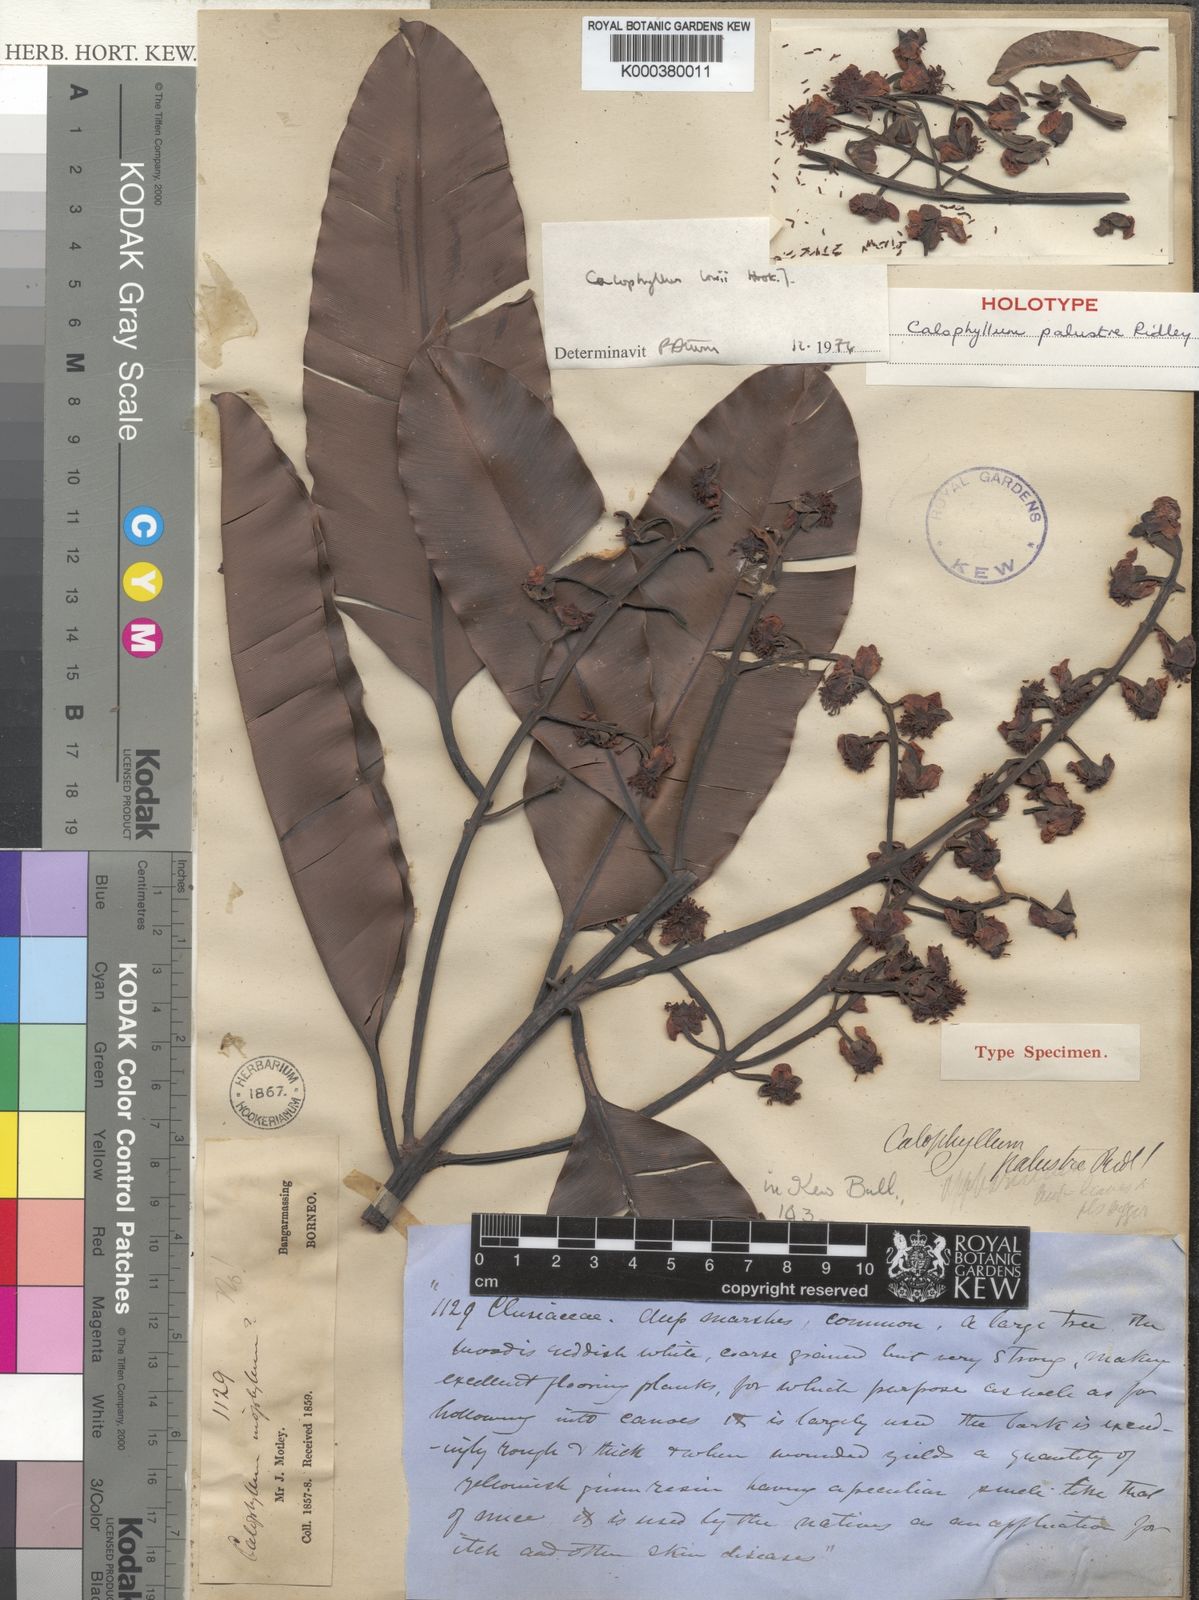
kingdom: Plantae
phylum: Tracheophyta
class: Magnoliopsida
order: Malpighiales
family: Calophyllaceae
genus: Calophyllum
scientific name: Calophyllum lowei
